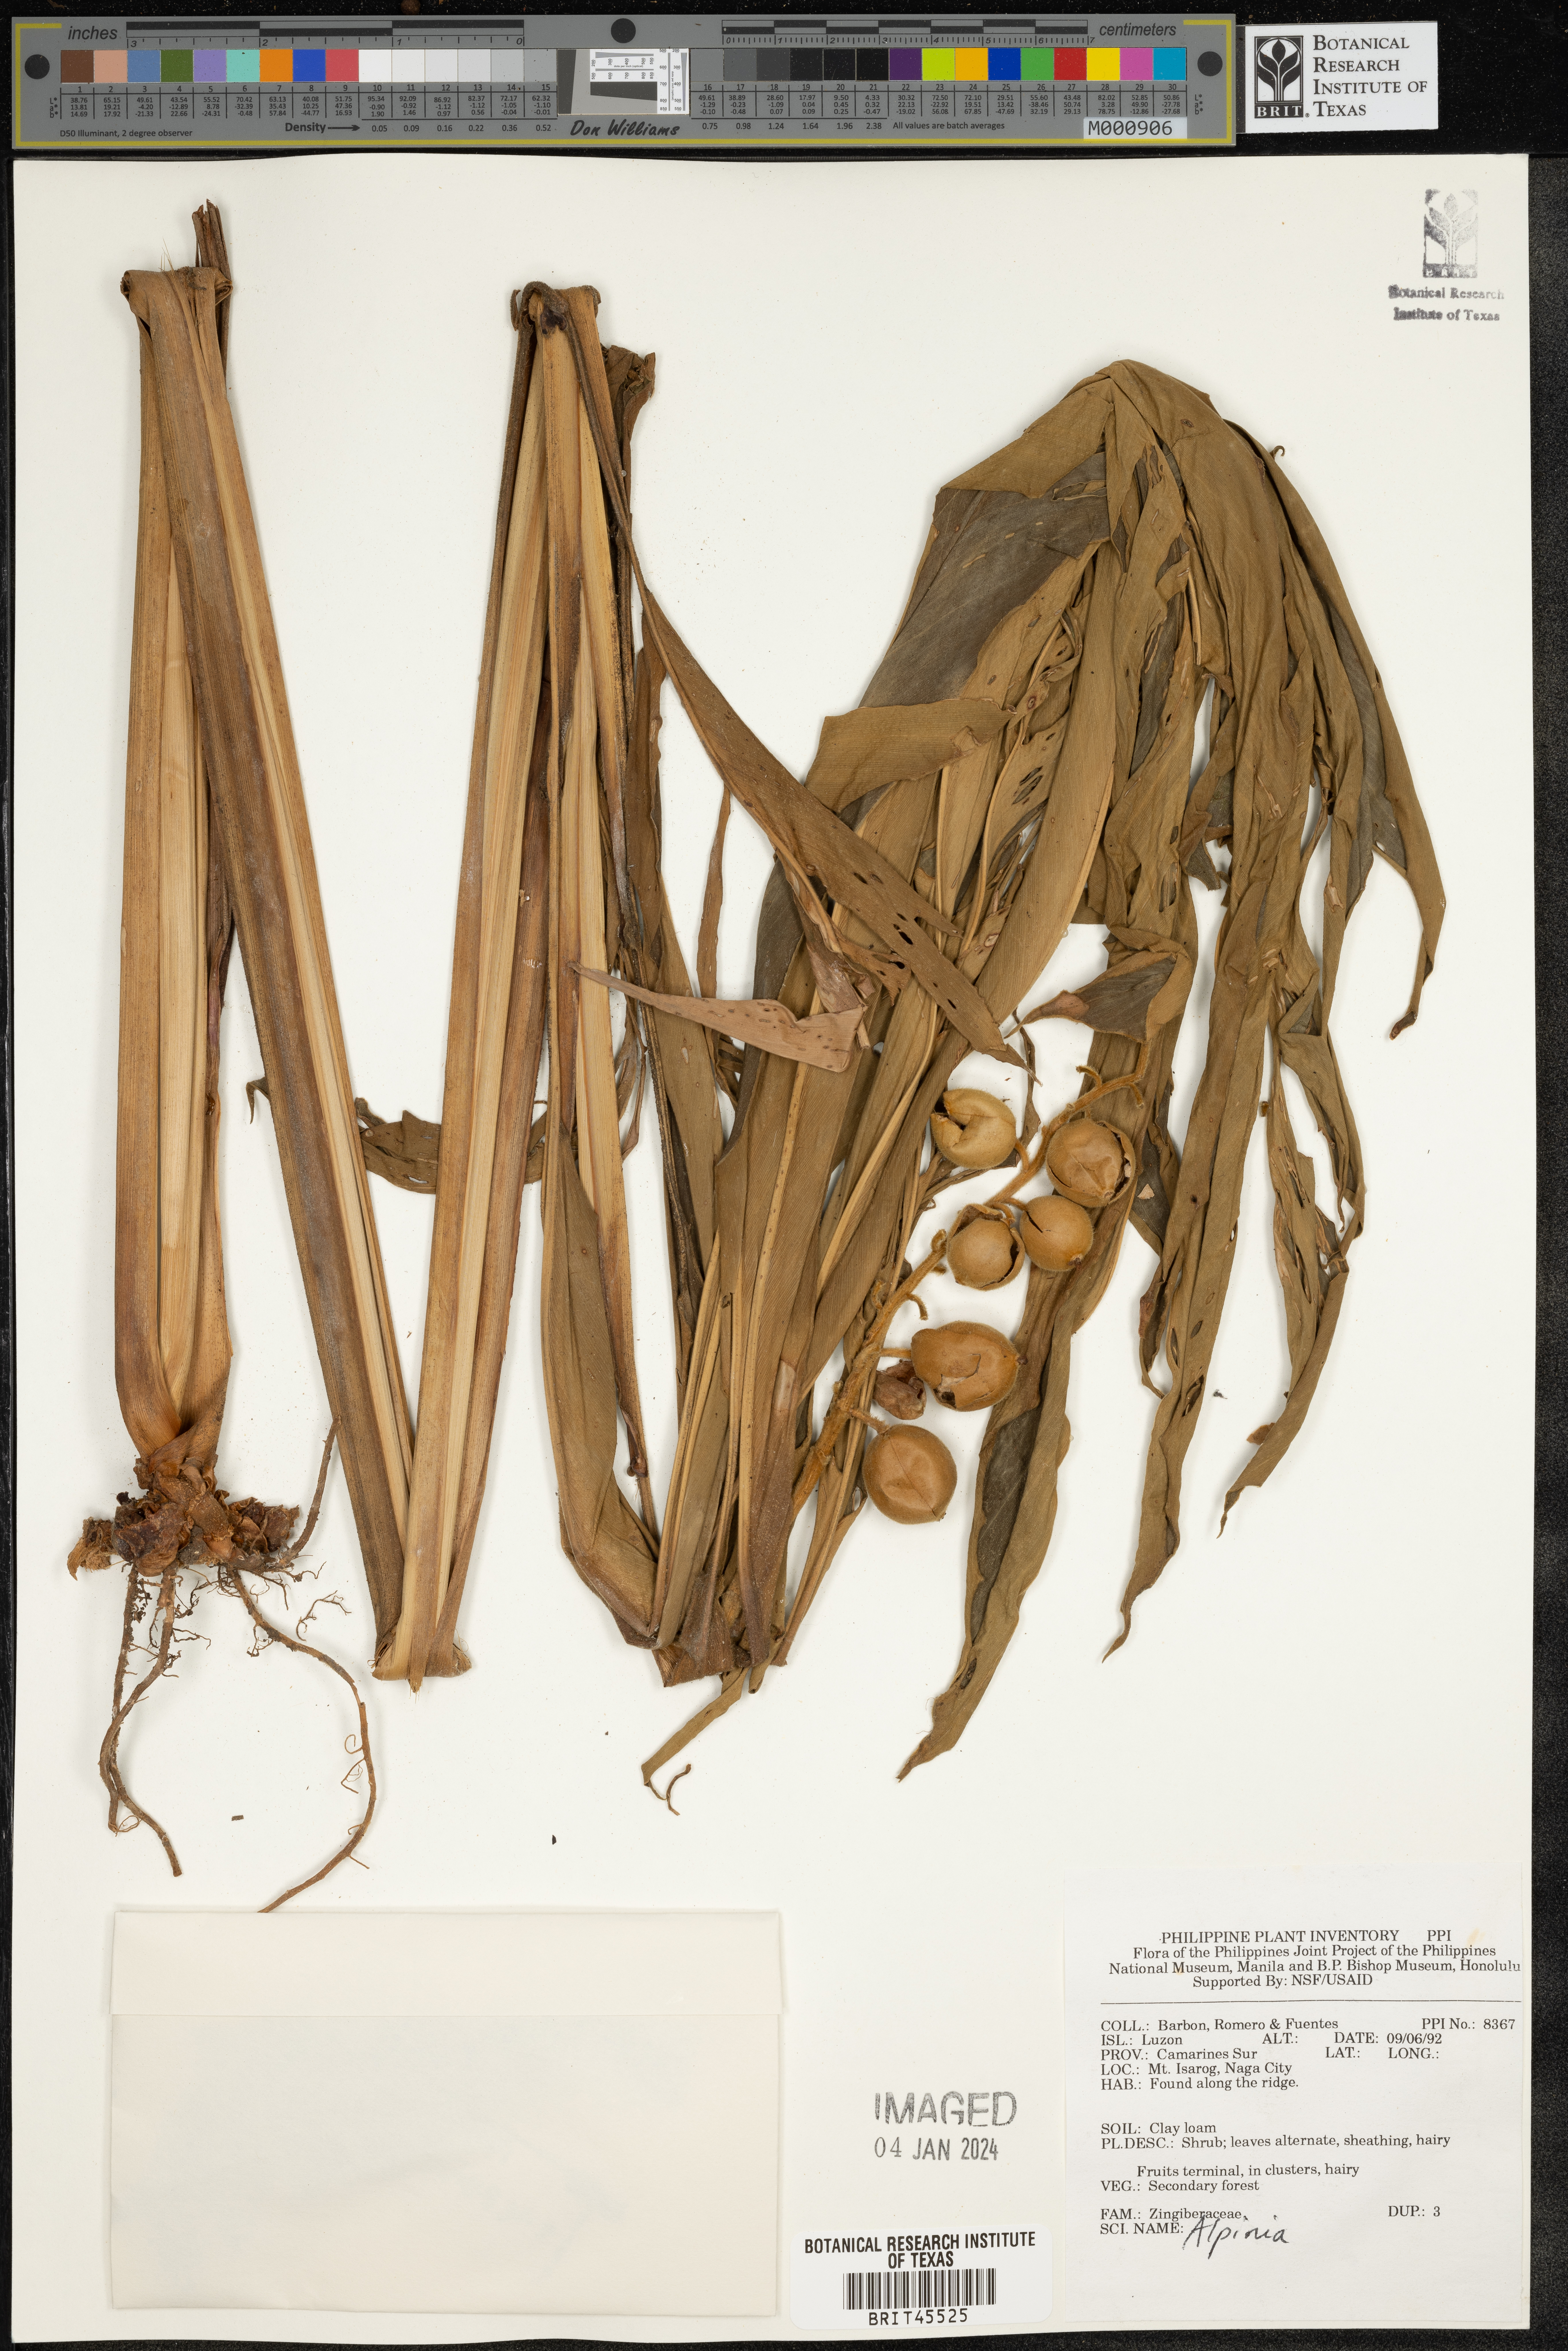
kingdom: Plantae
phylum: Tracheophyta
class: Liliopsida
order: Zingiberales
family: Zingiberaceae
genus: Alpinia
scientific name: Alpinia
